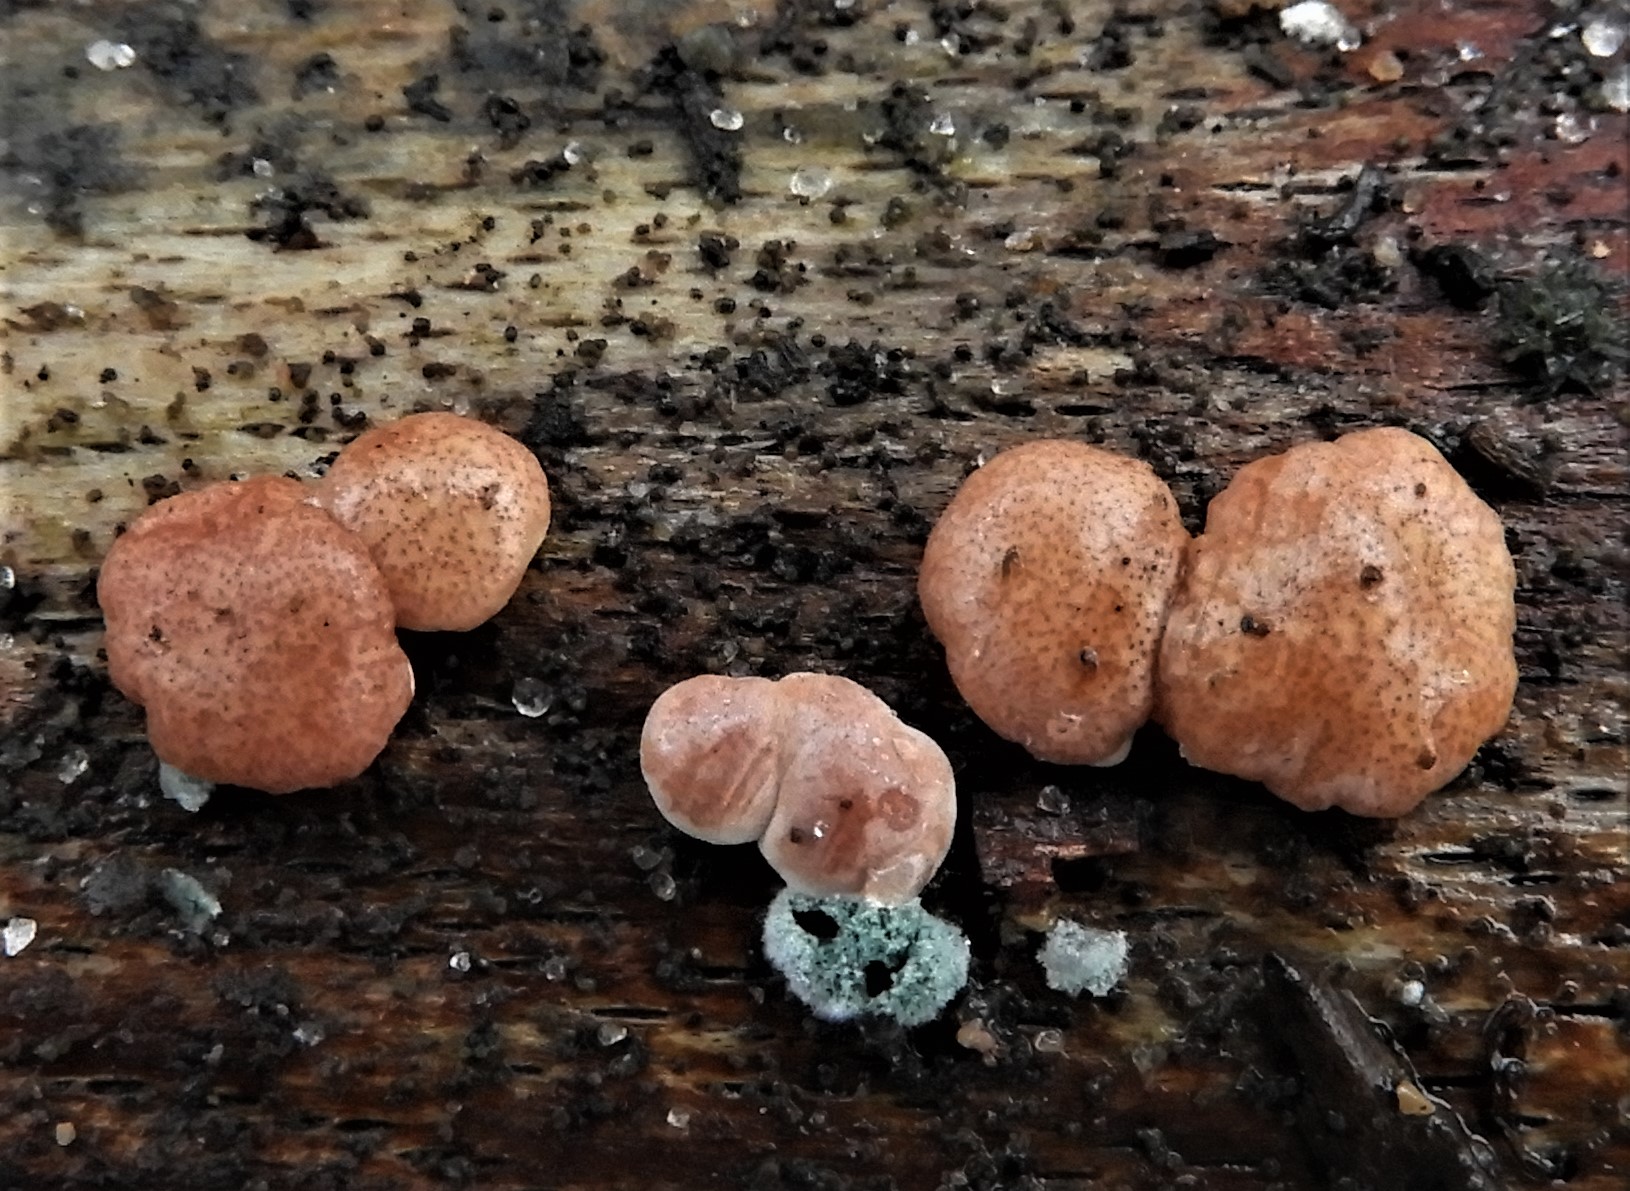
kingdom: Fungi
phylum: Ascomycota
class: Sordariomycetes
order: Hypocreales
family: Hypocreaceae
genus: Trichoderma
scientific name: Trichoderma europaeum
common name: rosabrun kødkerne
